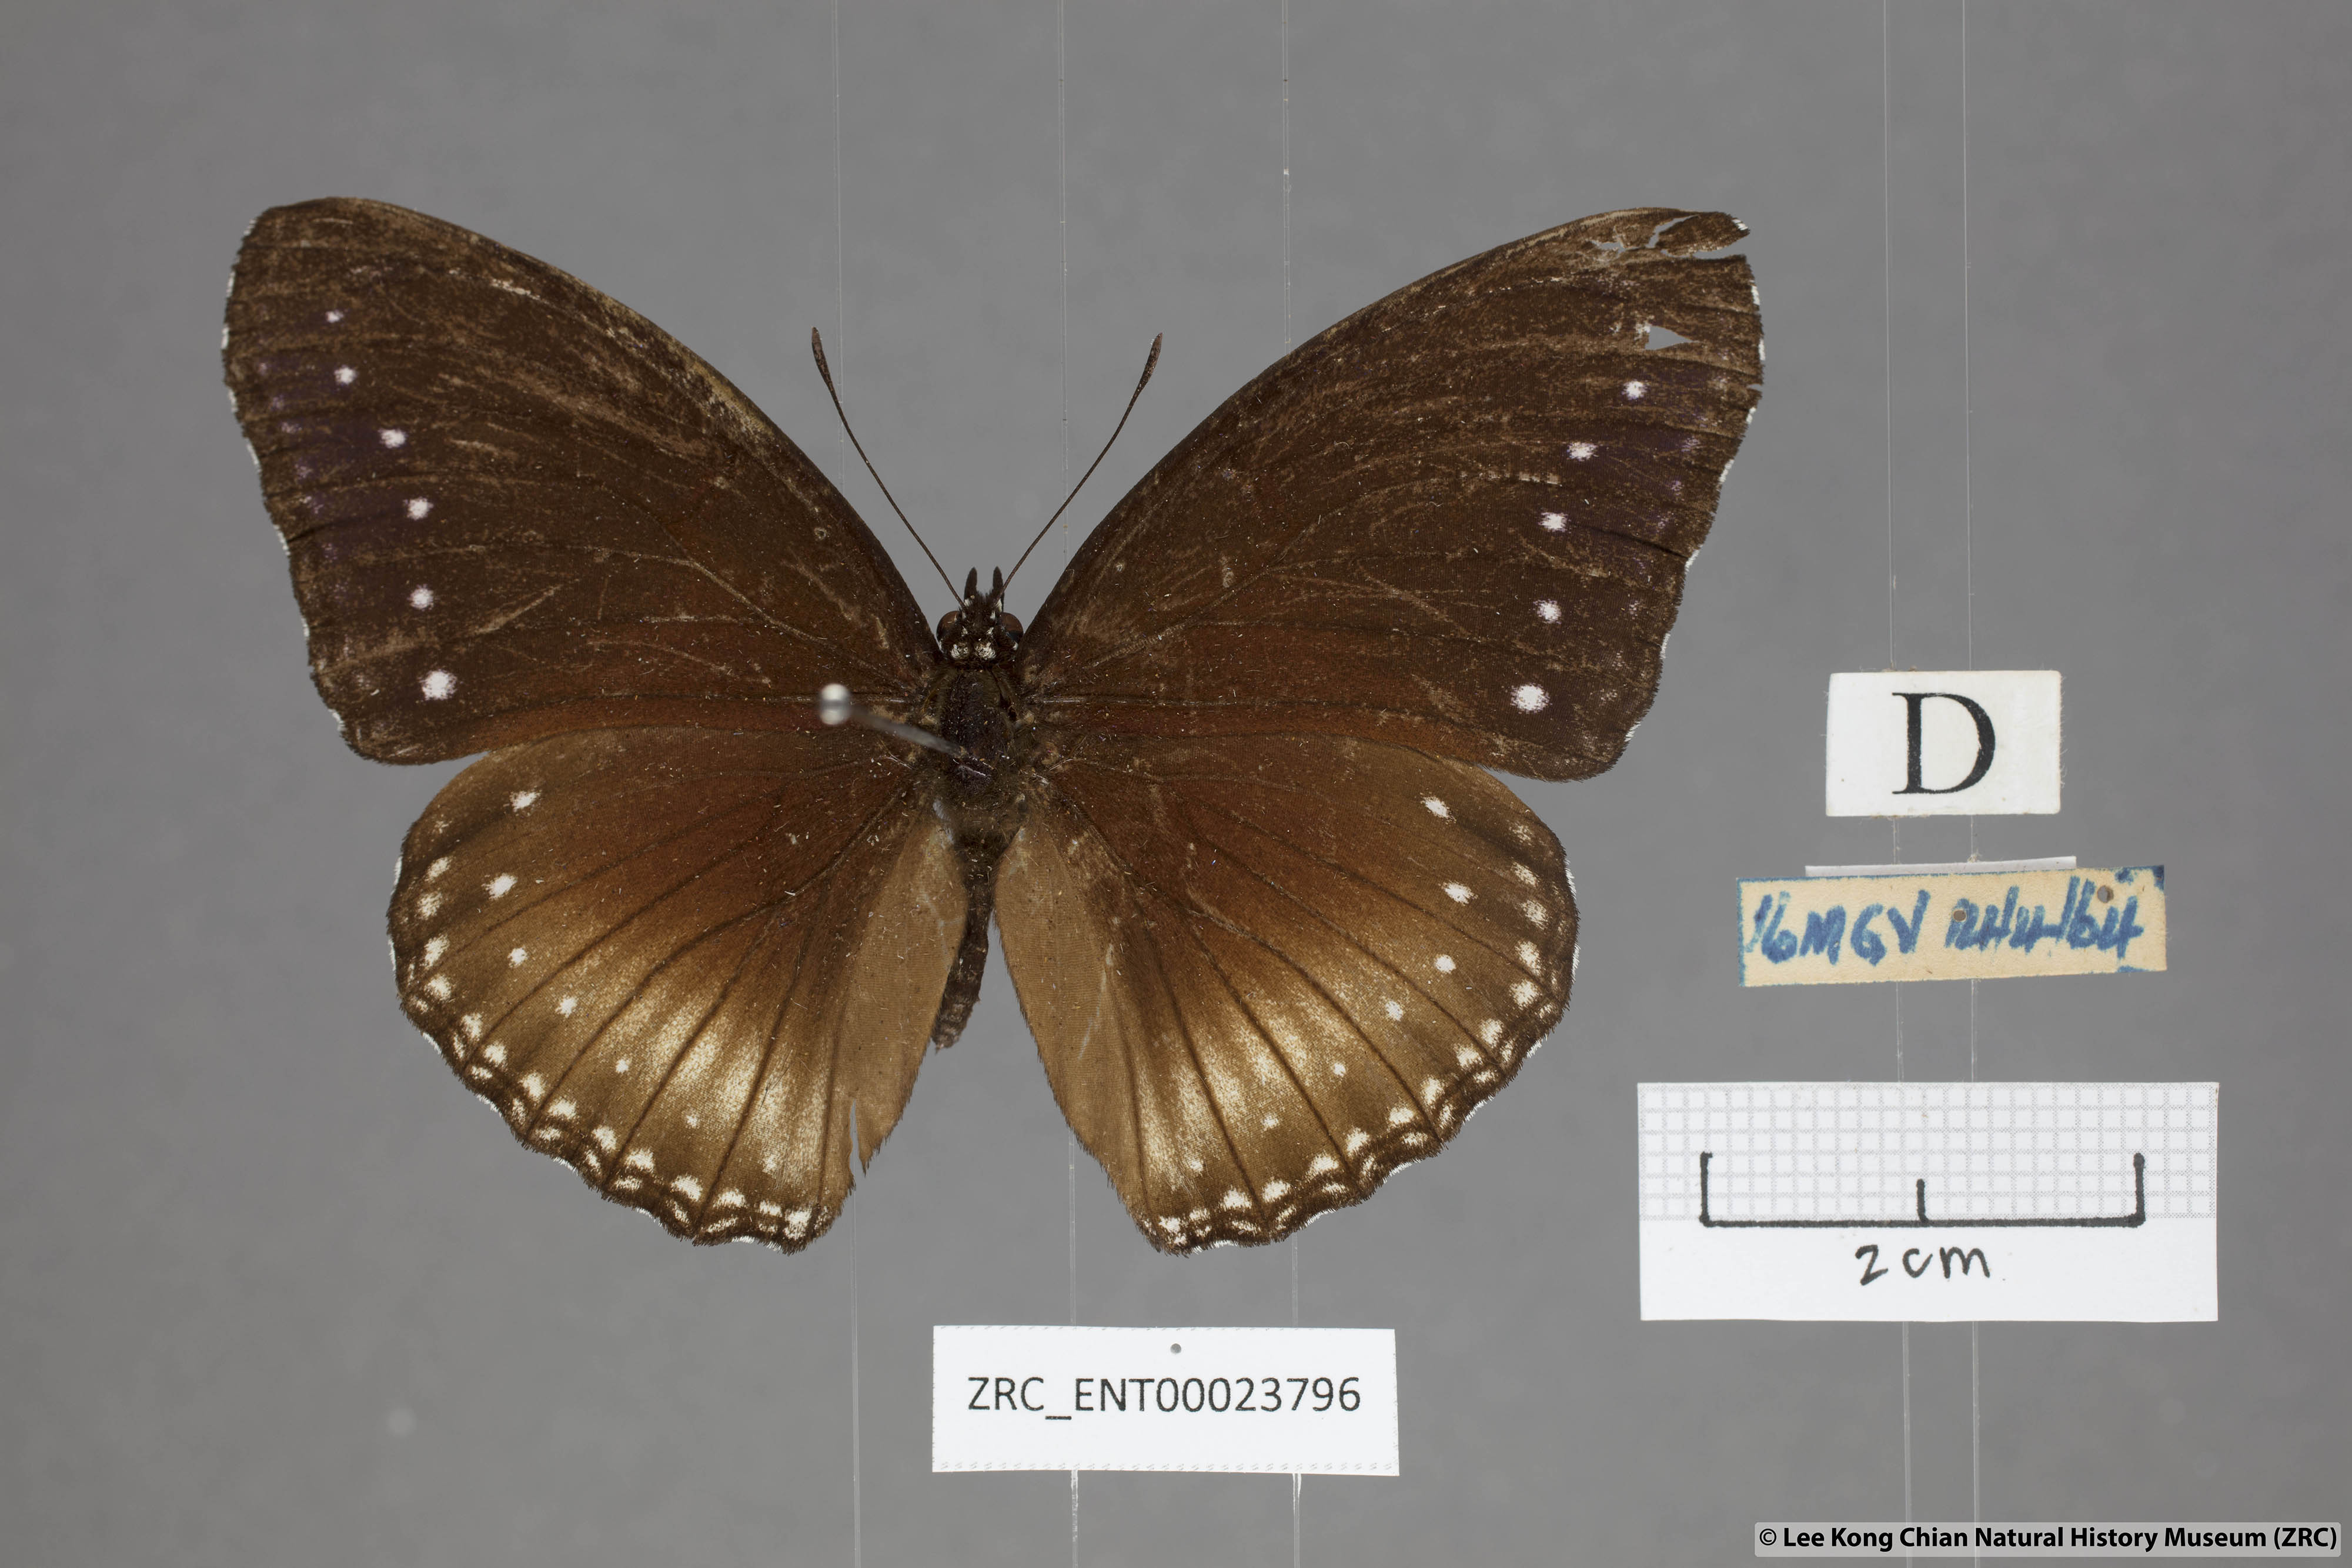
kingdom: Animalia
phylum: Arthropoda
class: Insecta
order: Lepidoptera
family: Nymphalidae
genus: Hypolimnas
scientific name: Hypolimnas anomala
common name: Malayan eggfly
